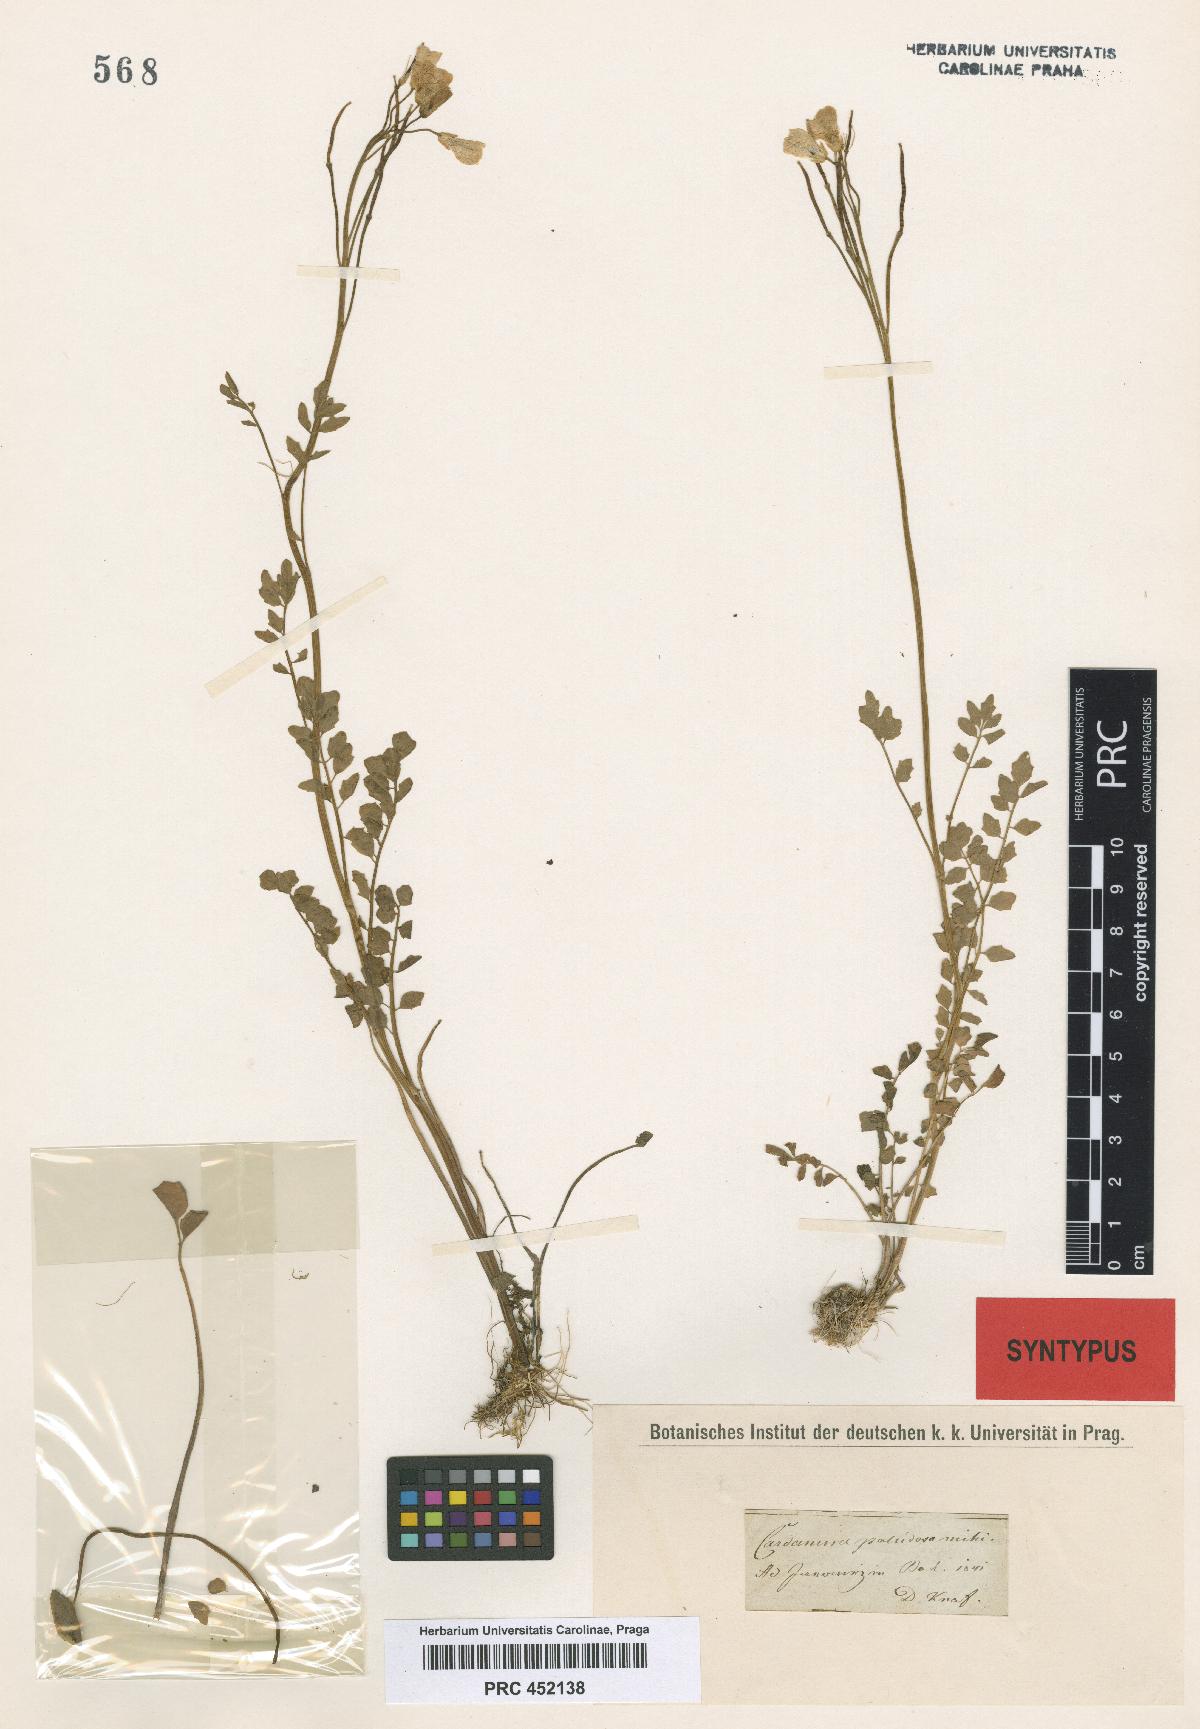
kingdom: Plantae
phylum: Tracheophyta
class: Magnoliopsida
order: Brassicales
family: Brassicaceae
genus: Cardamine
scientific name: Cardamine pratensis
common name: Cuckoo flower
